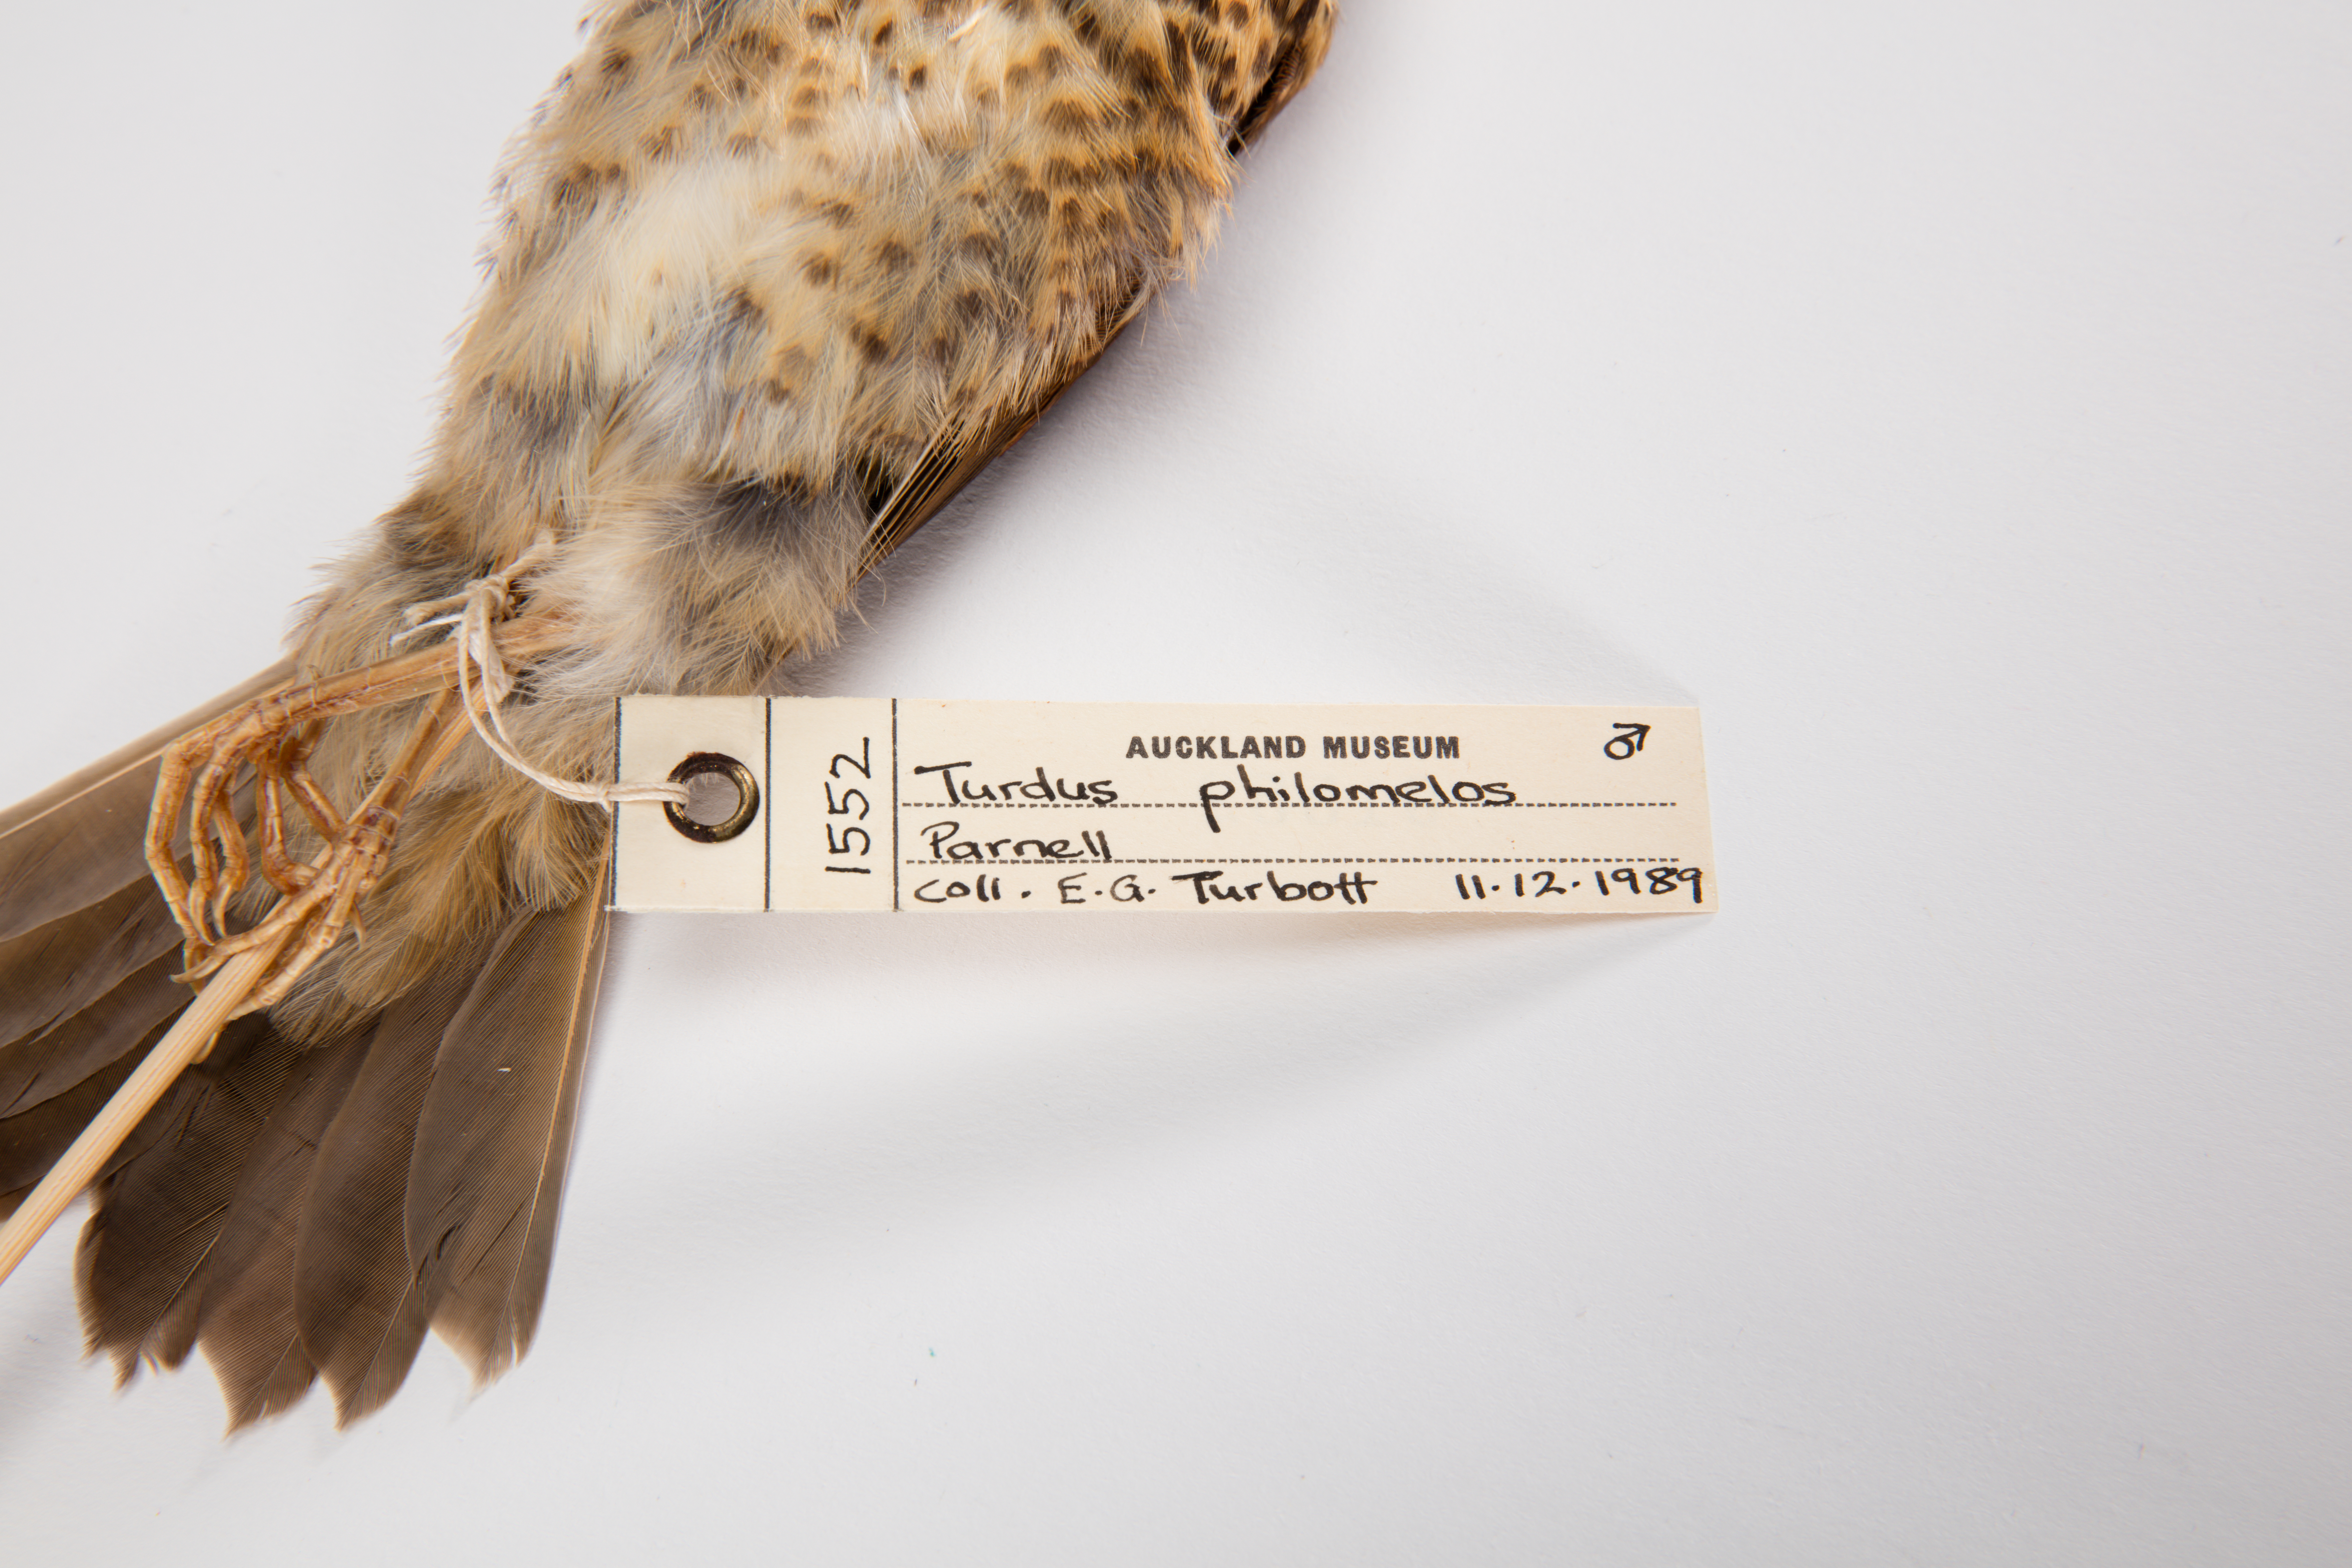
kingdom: Animalia
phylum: Chordata
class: Aves
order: Passeriformes
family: Turdidae
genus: Turdus
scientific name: Turdus philomelos
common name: Song thrush
